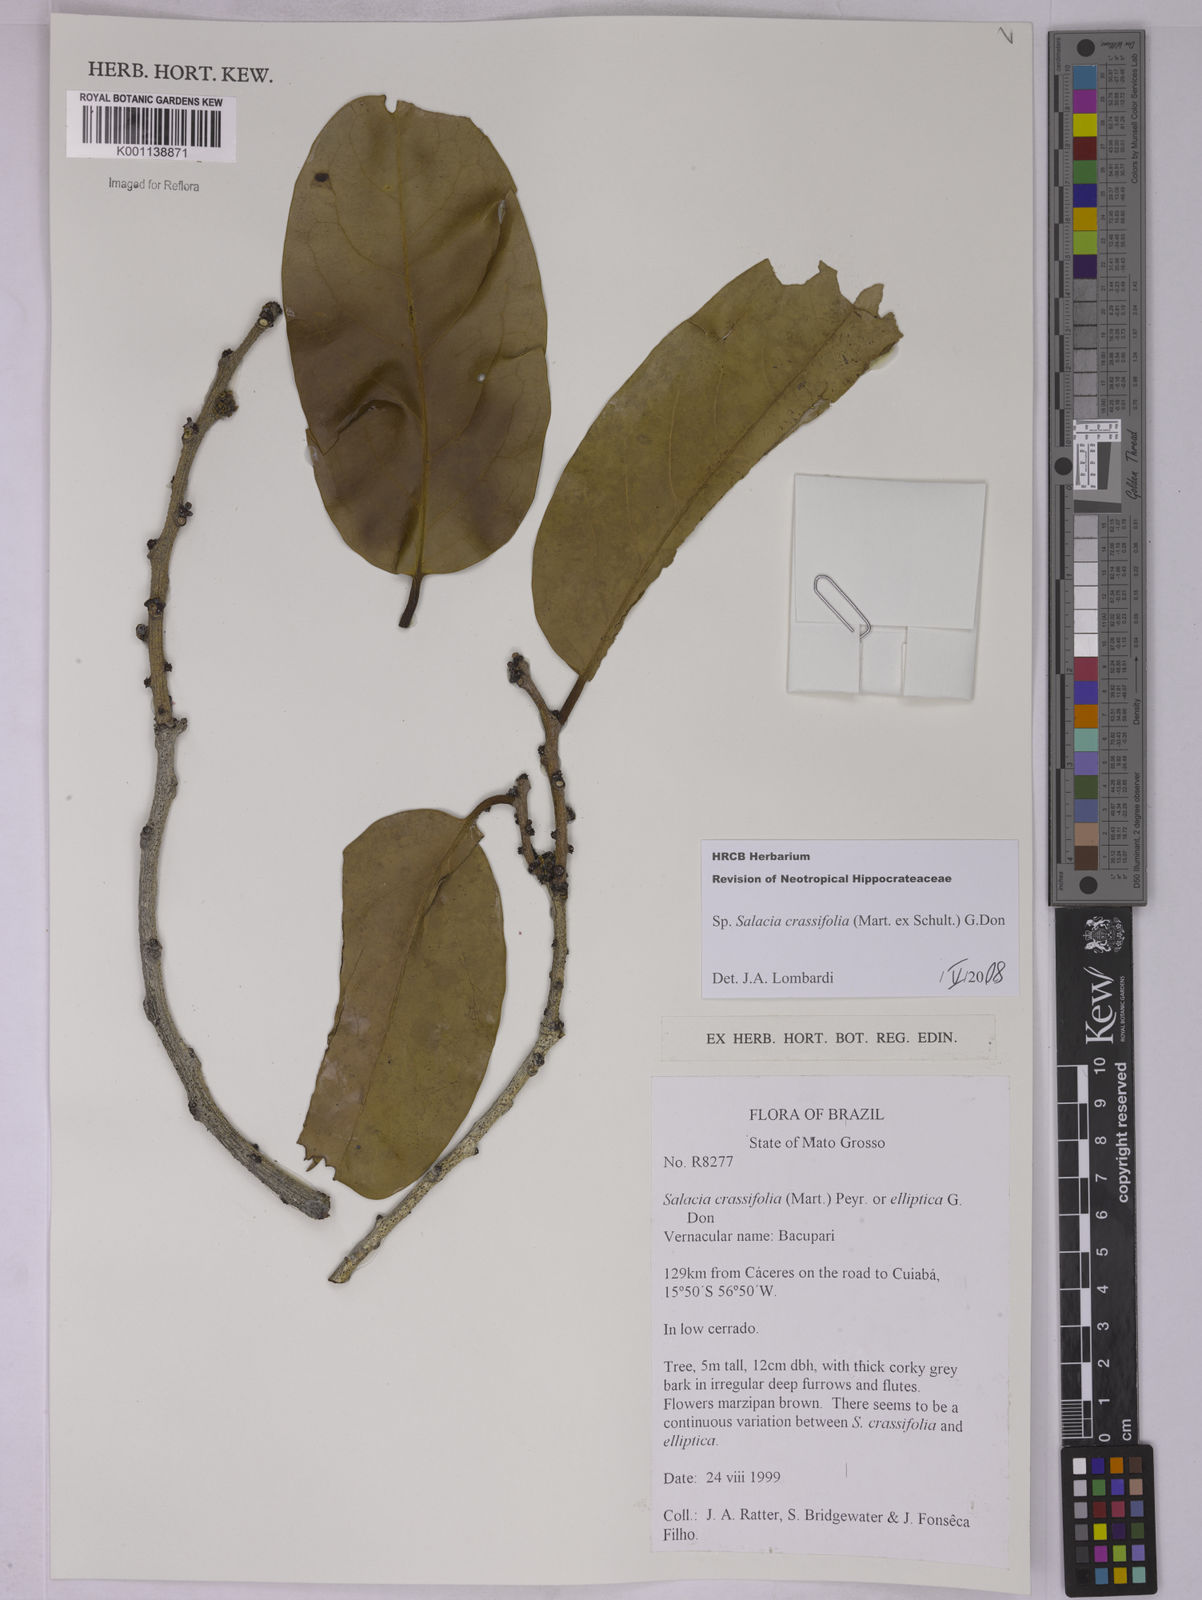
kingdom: Plantae
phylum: Tracheophyta
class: Magnoliopsida
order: Celastrales
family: Celastraceae
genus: Salacia
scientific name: Salacia crassifolia
